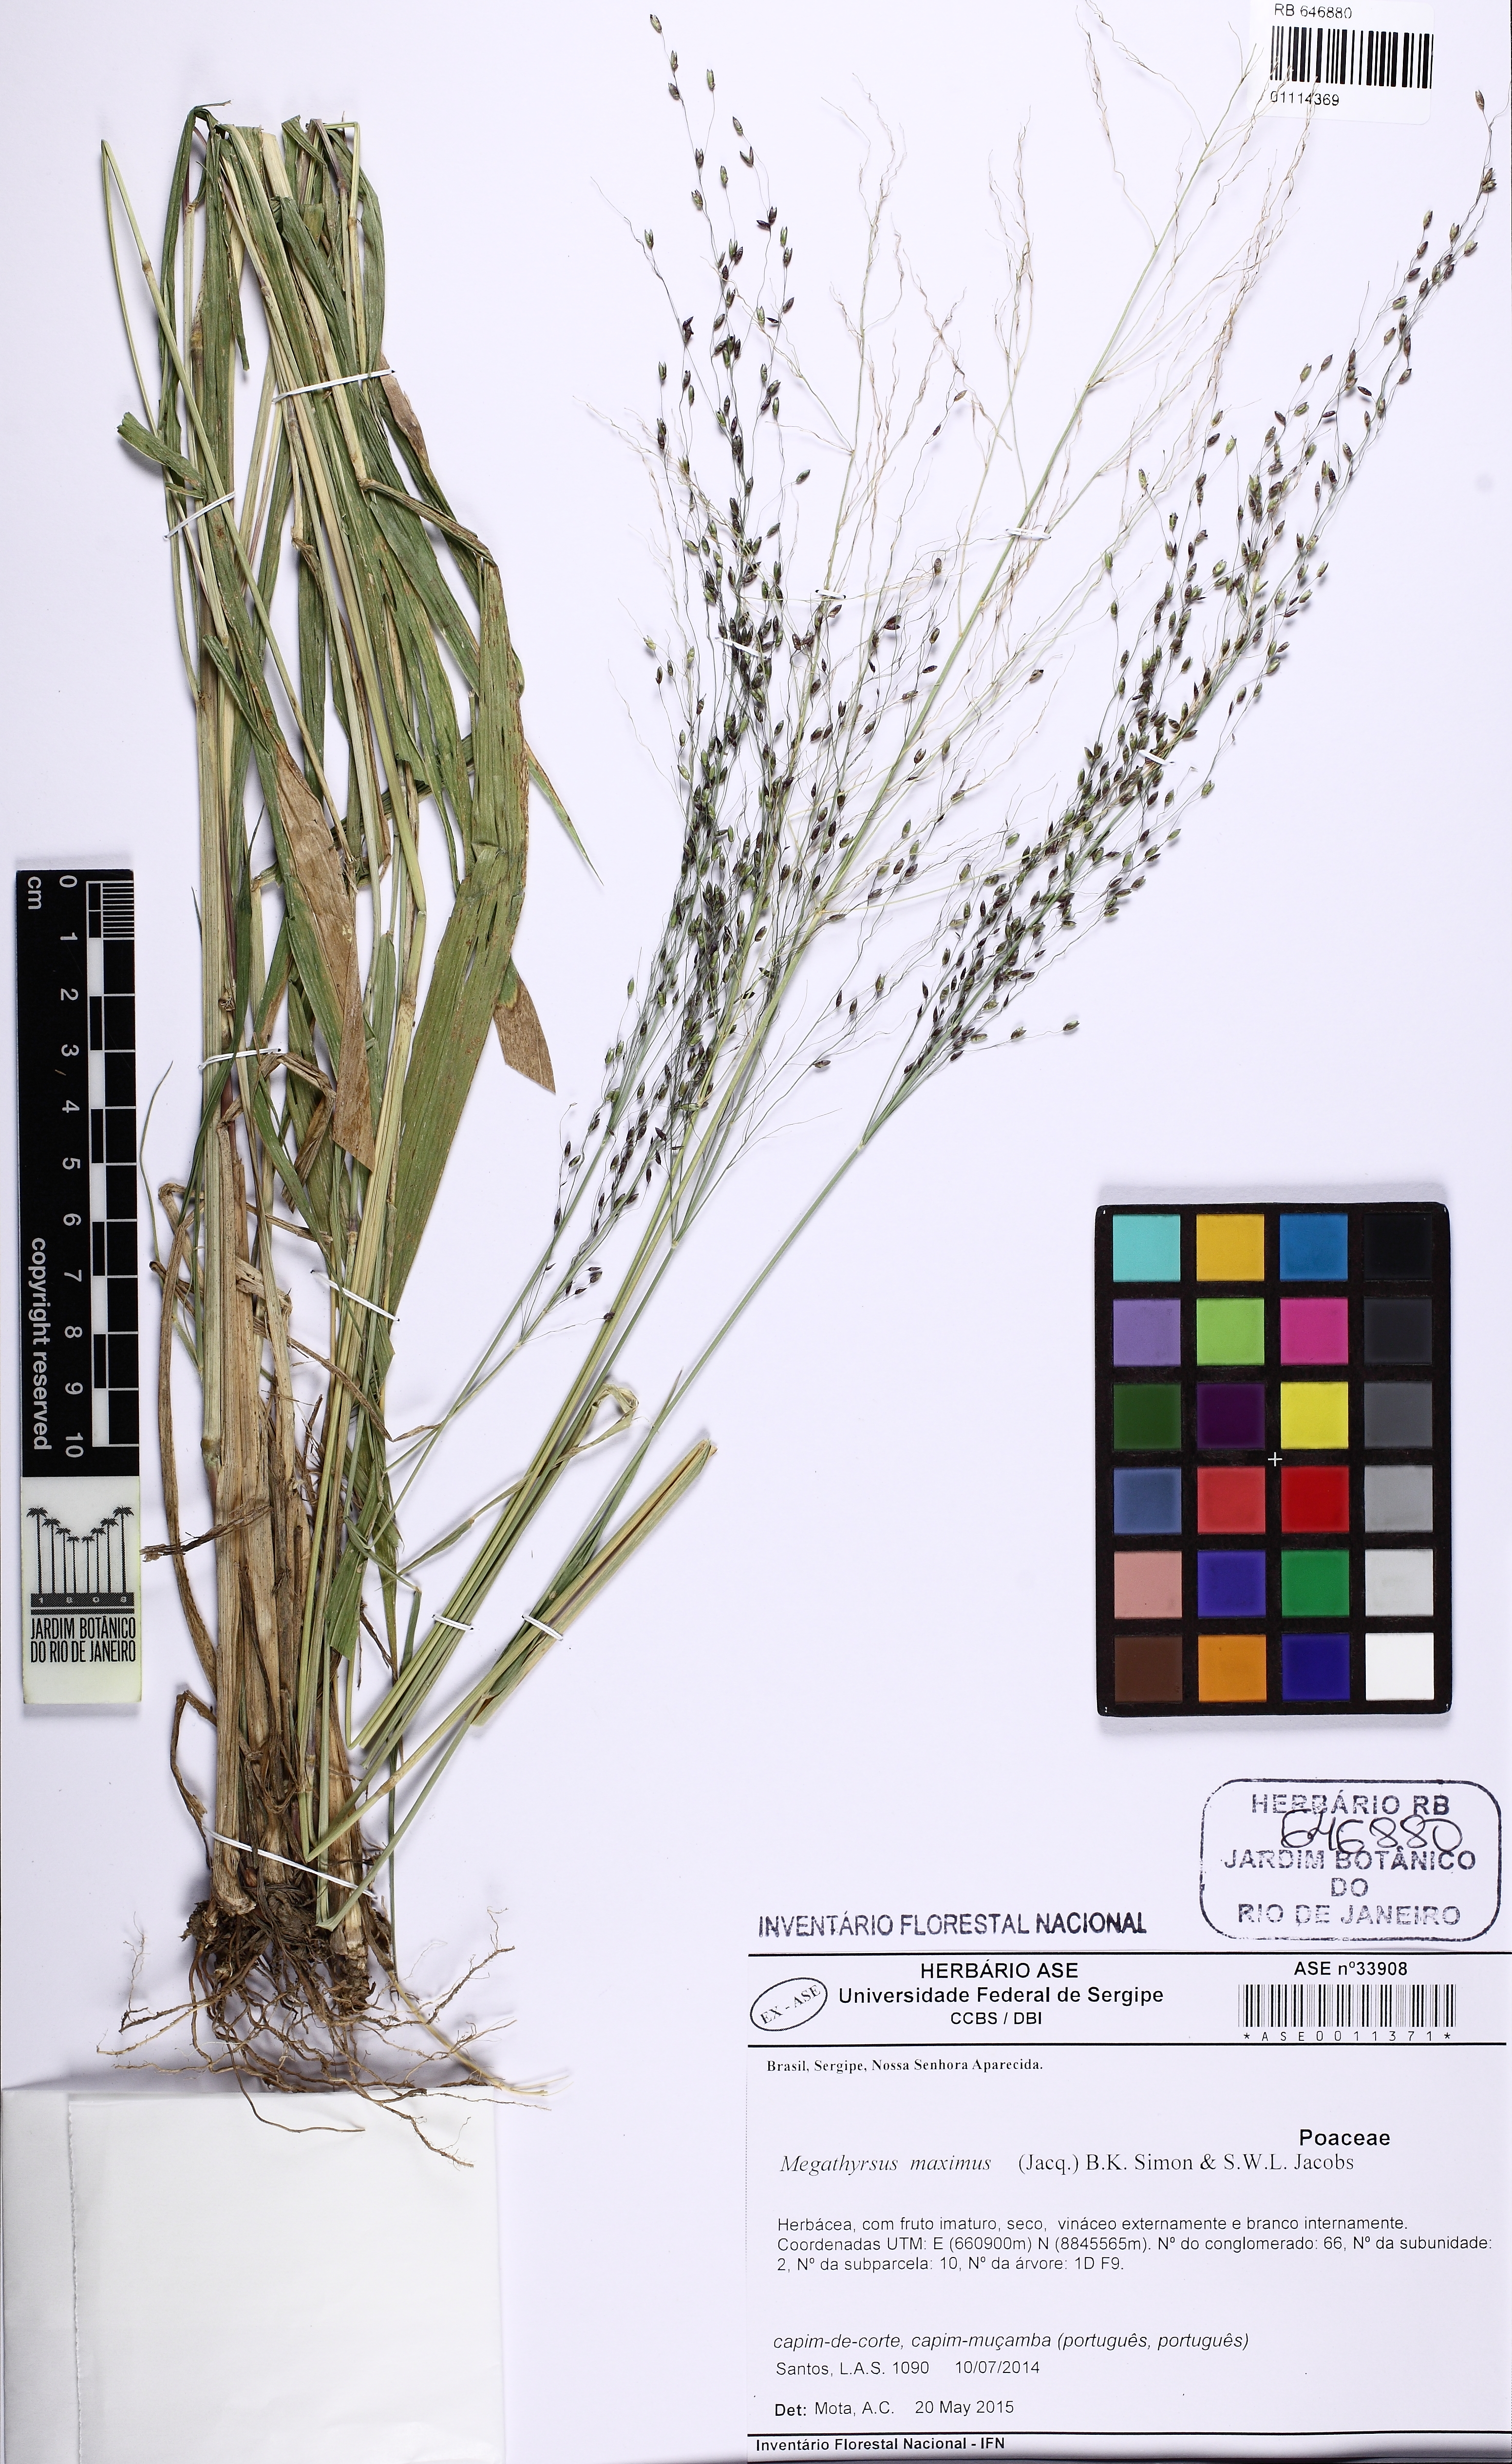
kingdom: Plantae
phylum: Tracheophyta
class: Liliopsida
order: Poales
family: Poaceae
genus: Megathyrsus
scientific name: Megathyrsus maximus
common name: Guineagrass
